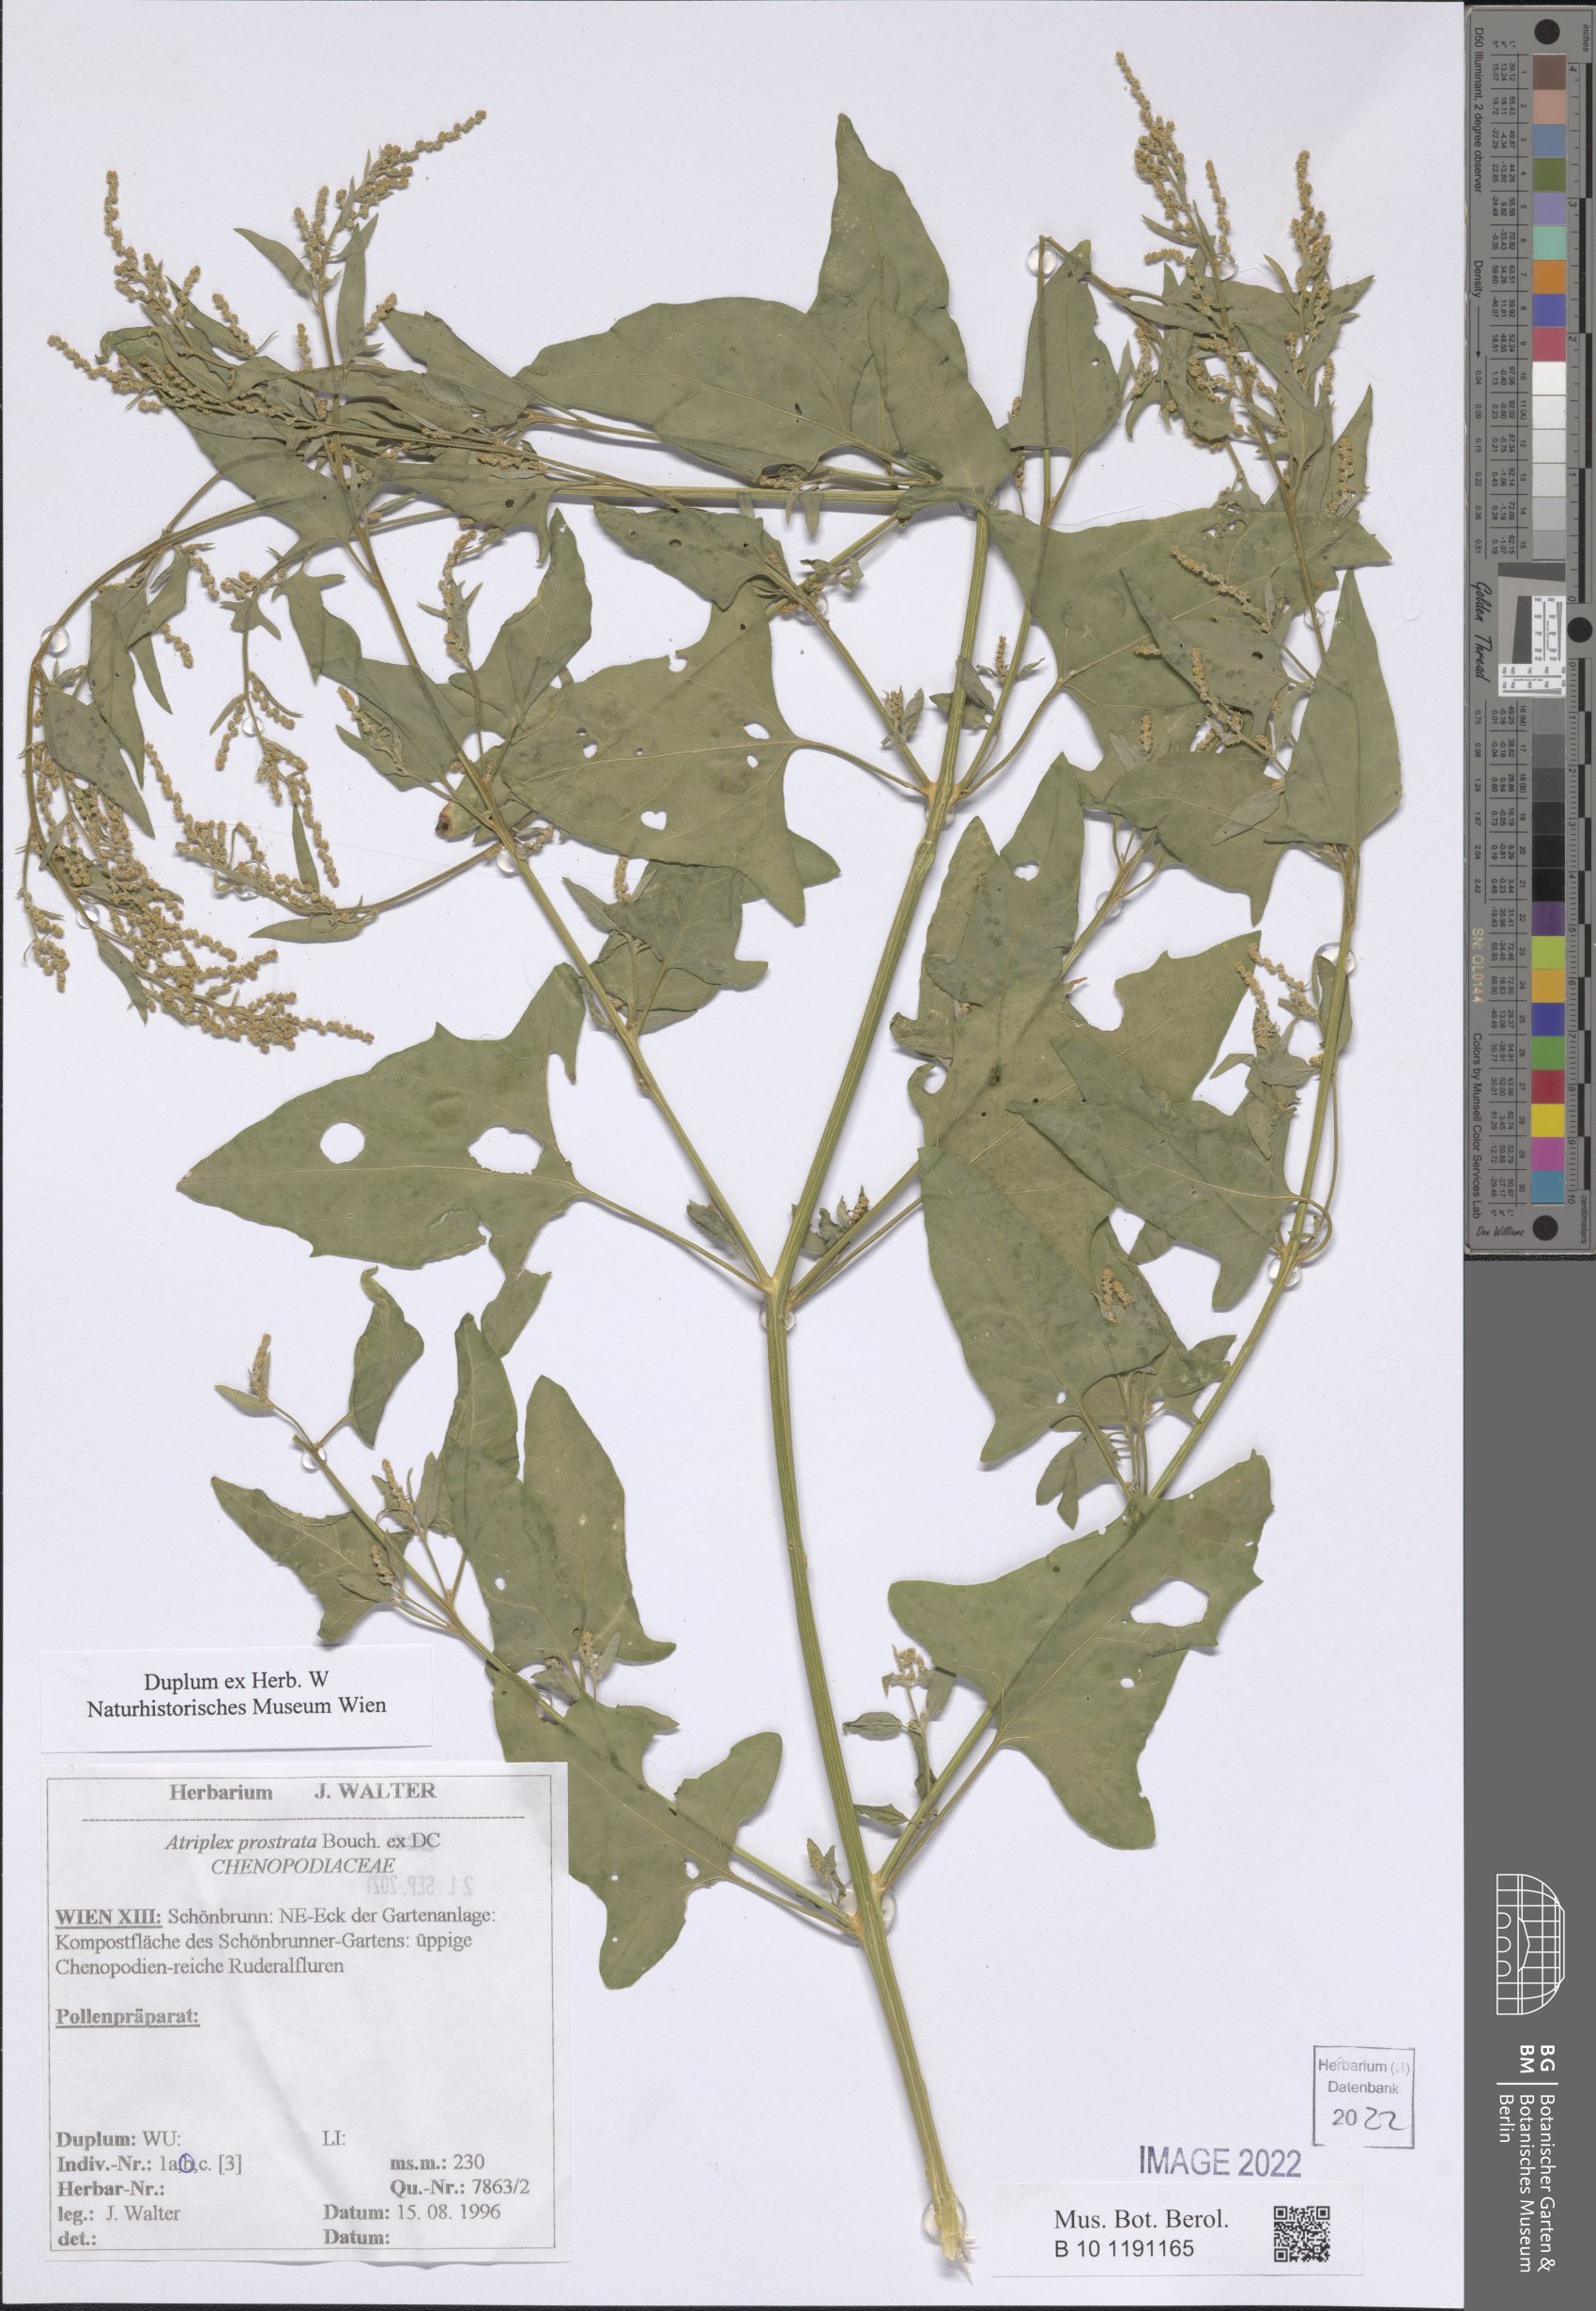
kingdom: Plantae
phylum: Tracheophyta
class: Magnoliopsida
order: Caryophyllales
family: Amaranthaceae
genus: Atriplex
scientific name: Atriplex prostrata
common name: Spear-leaved orache
